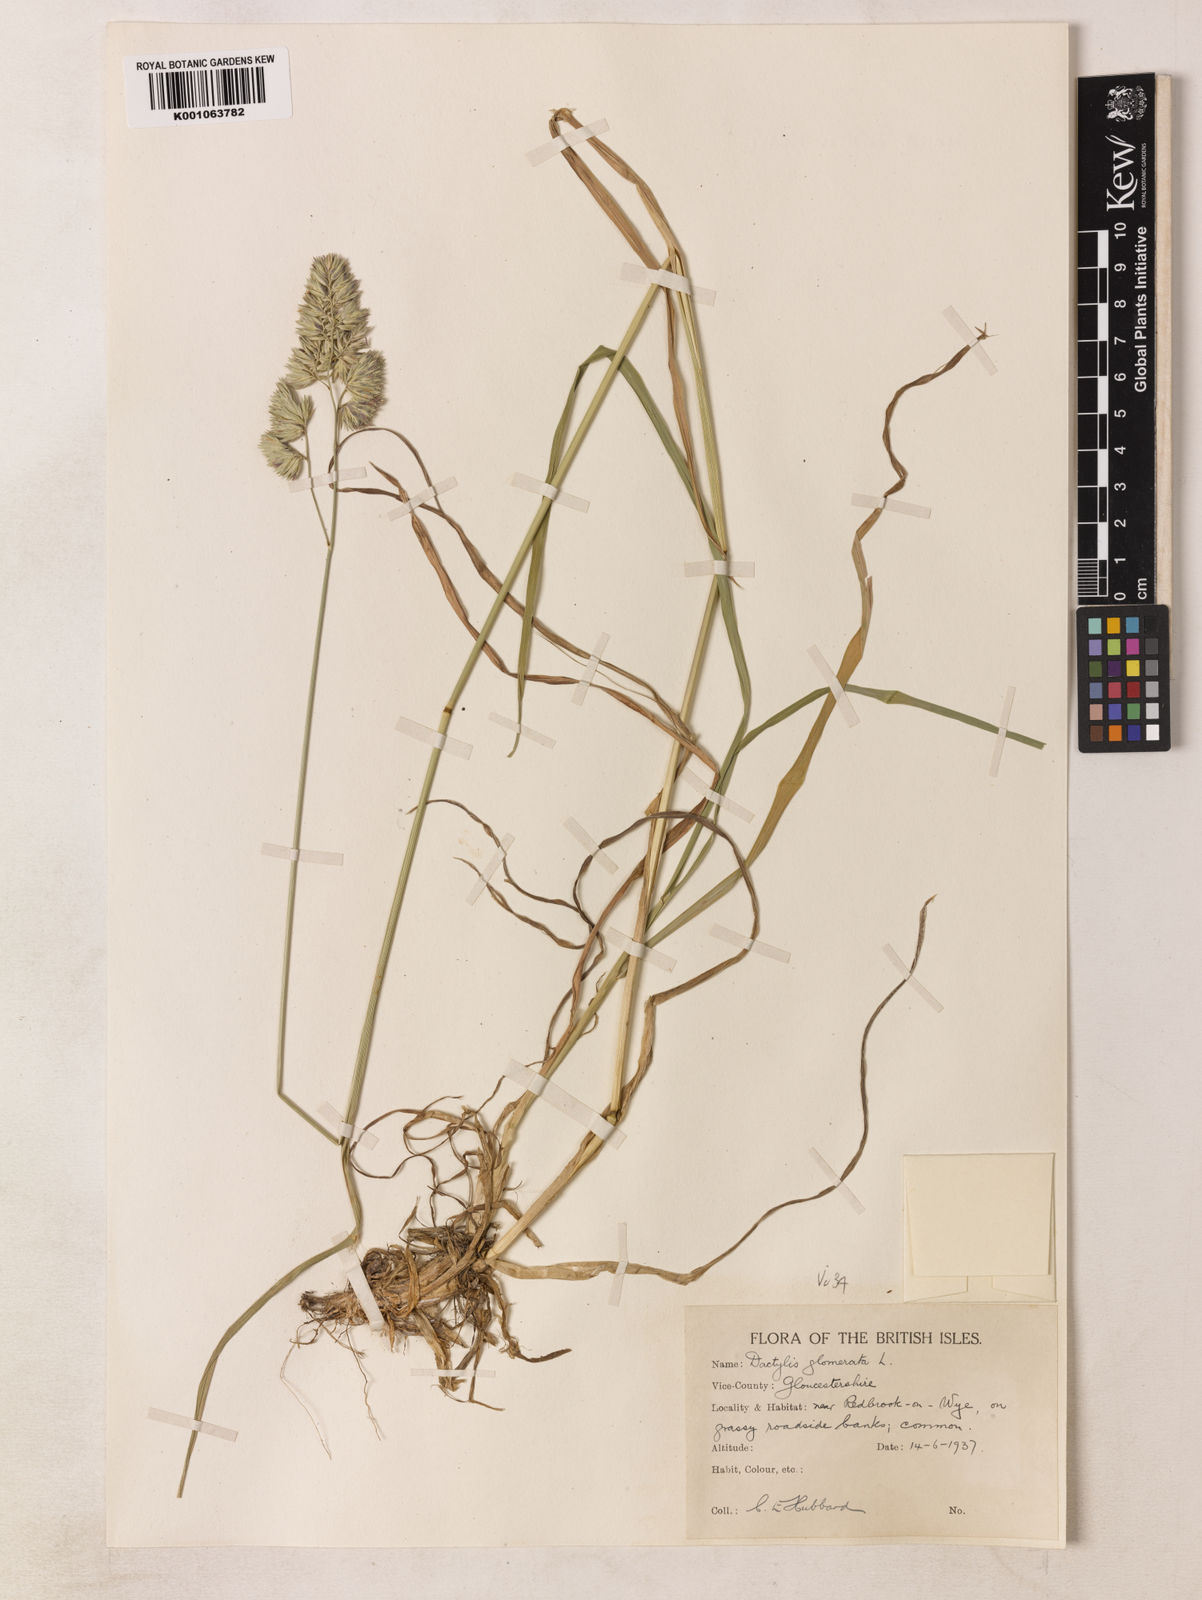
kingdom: Plantae
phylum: Tracheophyta
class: Liliopsida
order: Poales
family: Poaceae
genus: Dactylis
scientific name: Dactylis glomerata
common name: Orchardgrass
